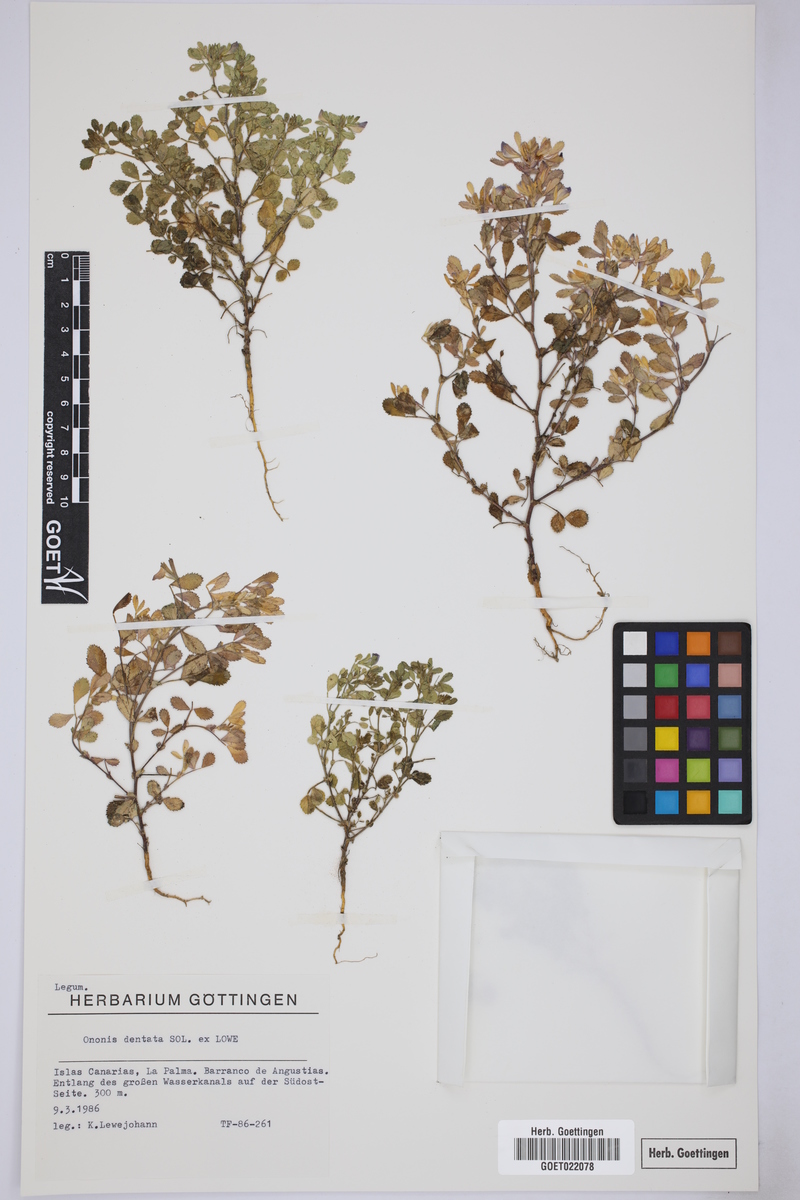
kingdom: Plantae
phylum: Tracheophyta
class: Magnoliopsida
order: Fabales
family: Fabaceae
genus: Ononis
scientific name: Ononis dentata
